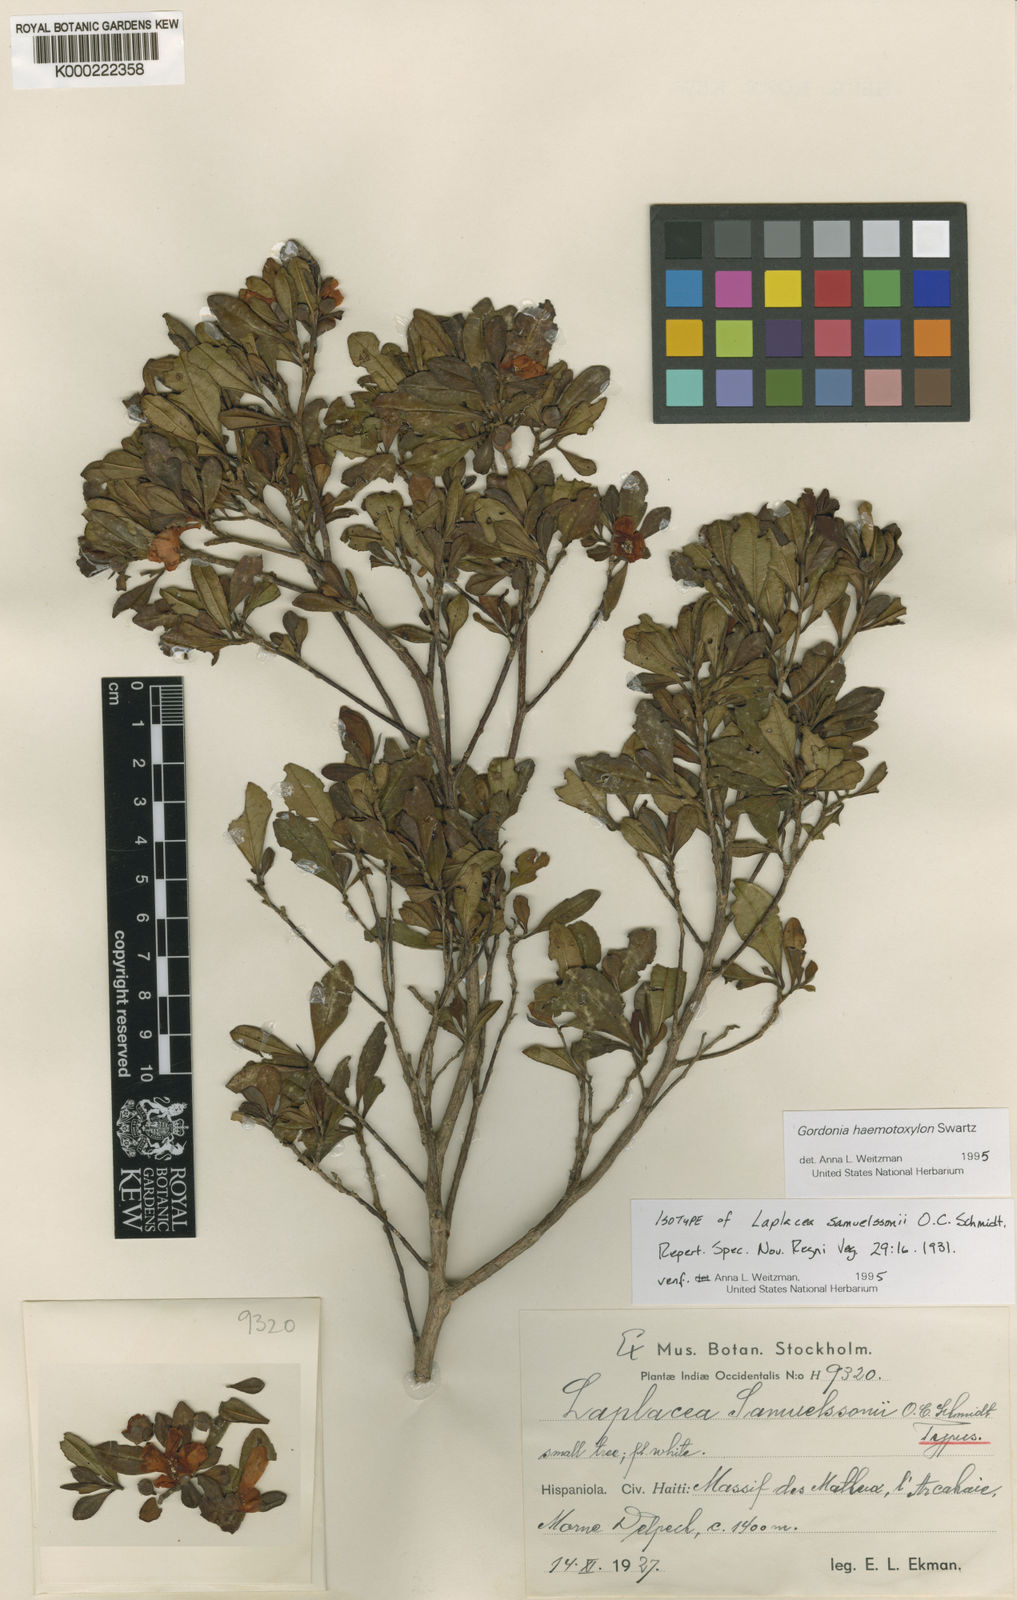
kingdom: Plantae
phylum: Tracheophyta
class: Magnoliopsida
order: Ericales
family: Theaceae
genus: Gordonia
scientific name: Gordonia samuelssonii
